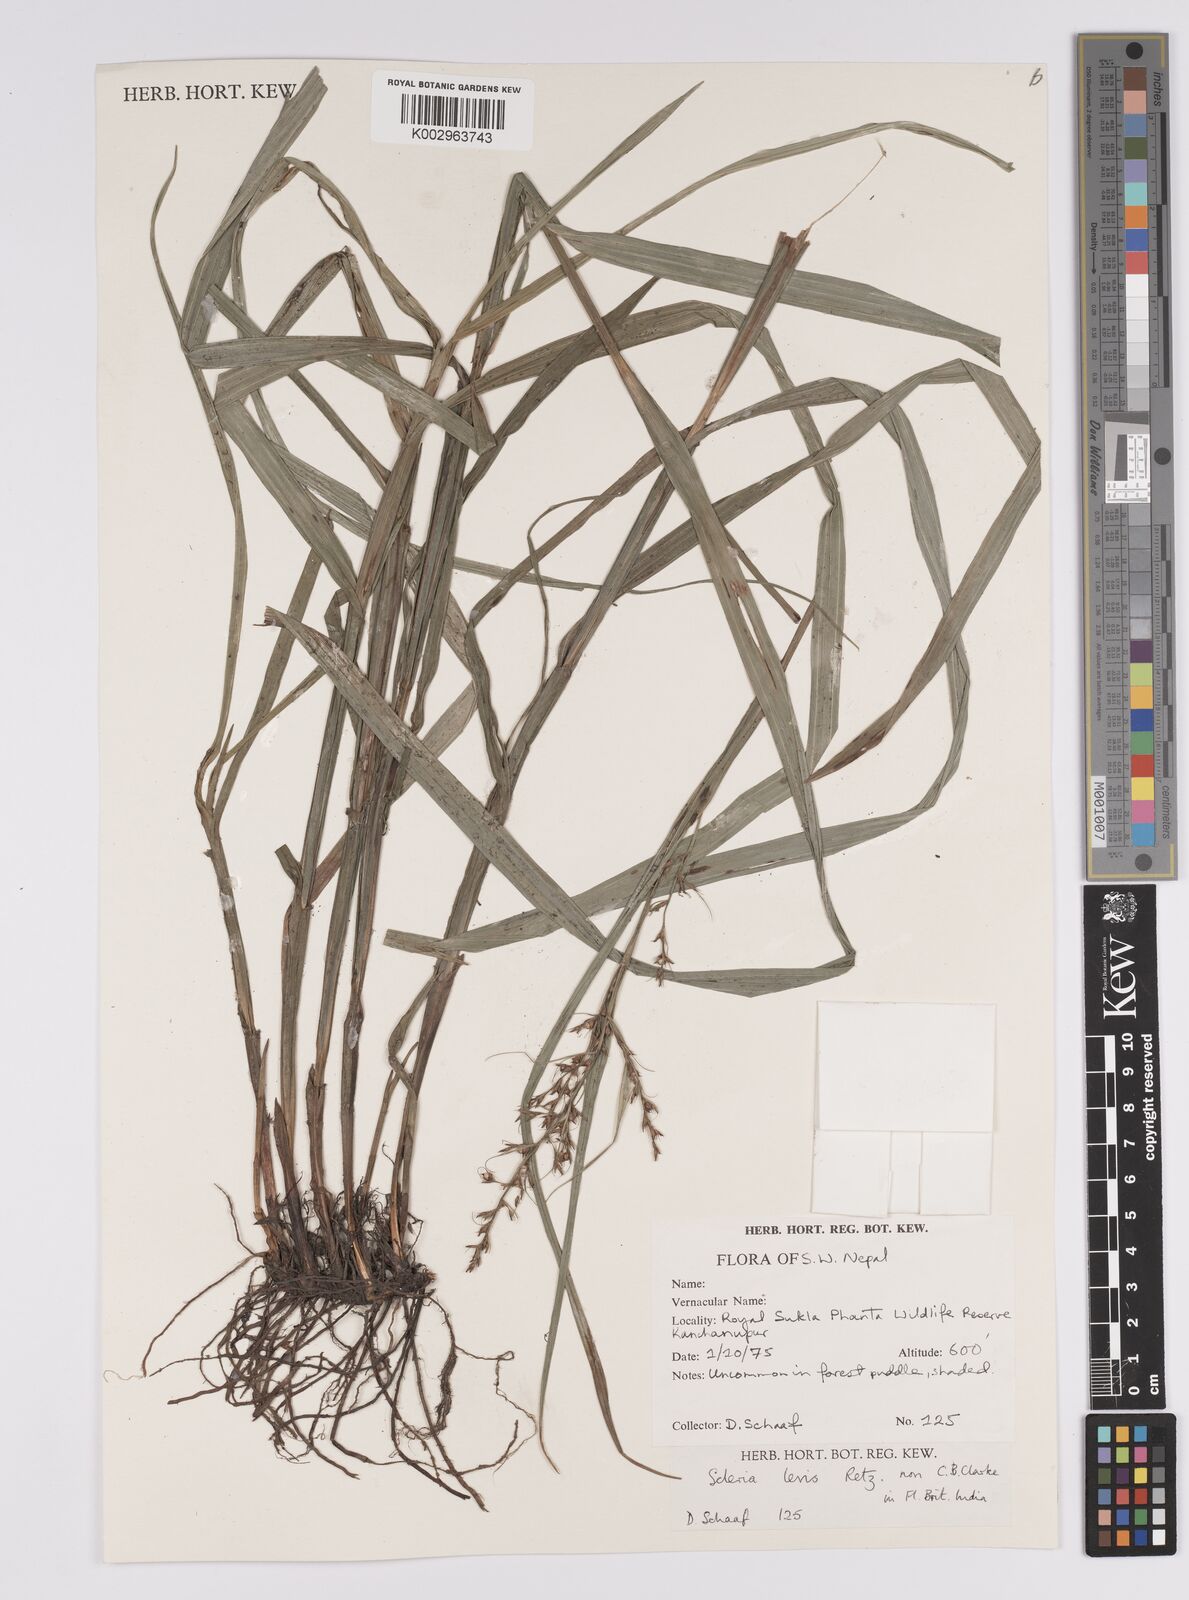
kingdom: Plantae
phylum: Tracheophyta
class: Liliopsida
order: Poales
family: Cyperaceae
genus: Scleria
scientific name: Scleria levis
